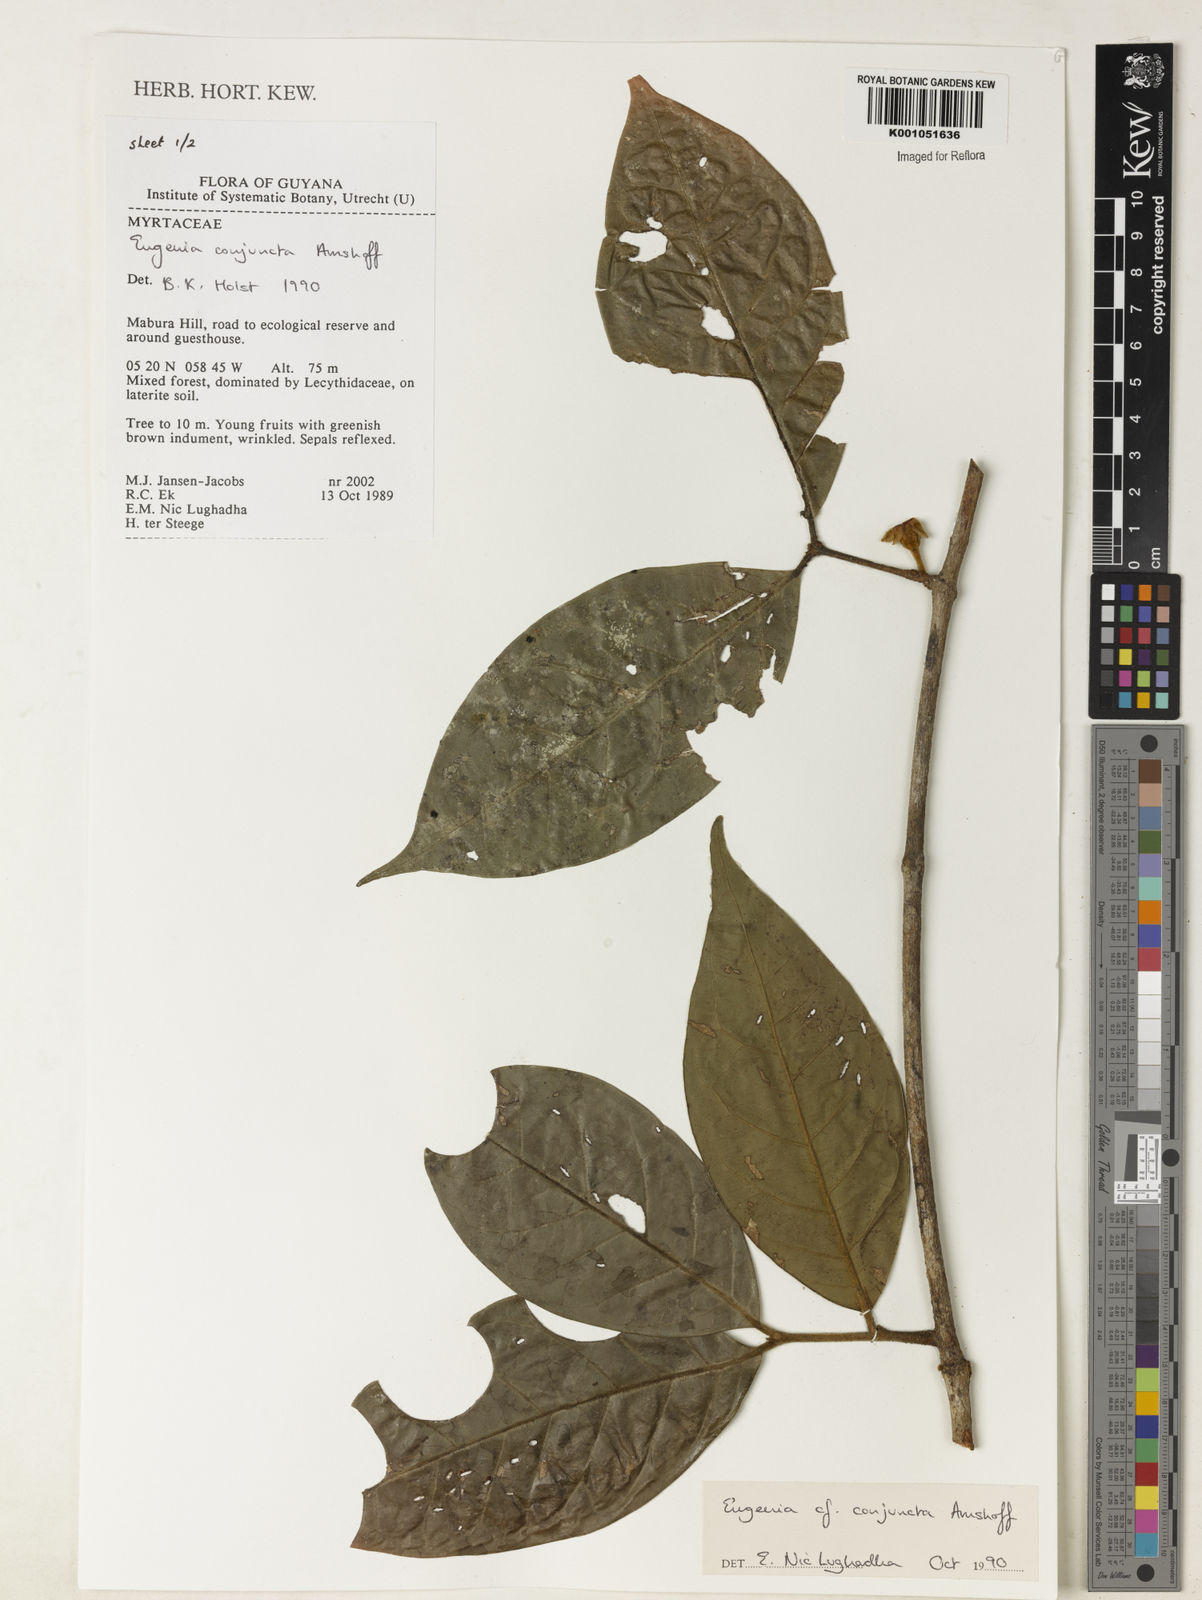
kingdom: Plantae
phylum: Tracheophyta
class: Magnoliopsida
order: Myrtales
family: Myrtaceae
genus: Eugenia
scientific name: Eugenia conjuncta
